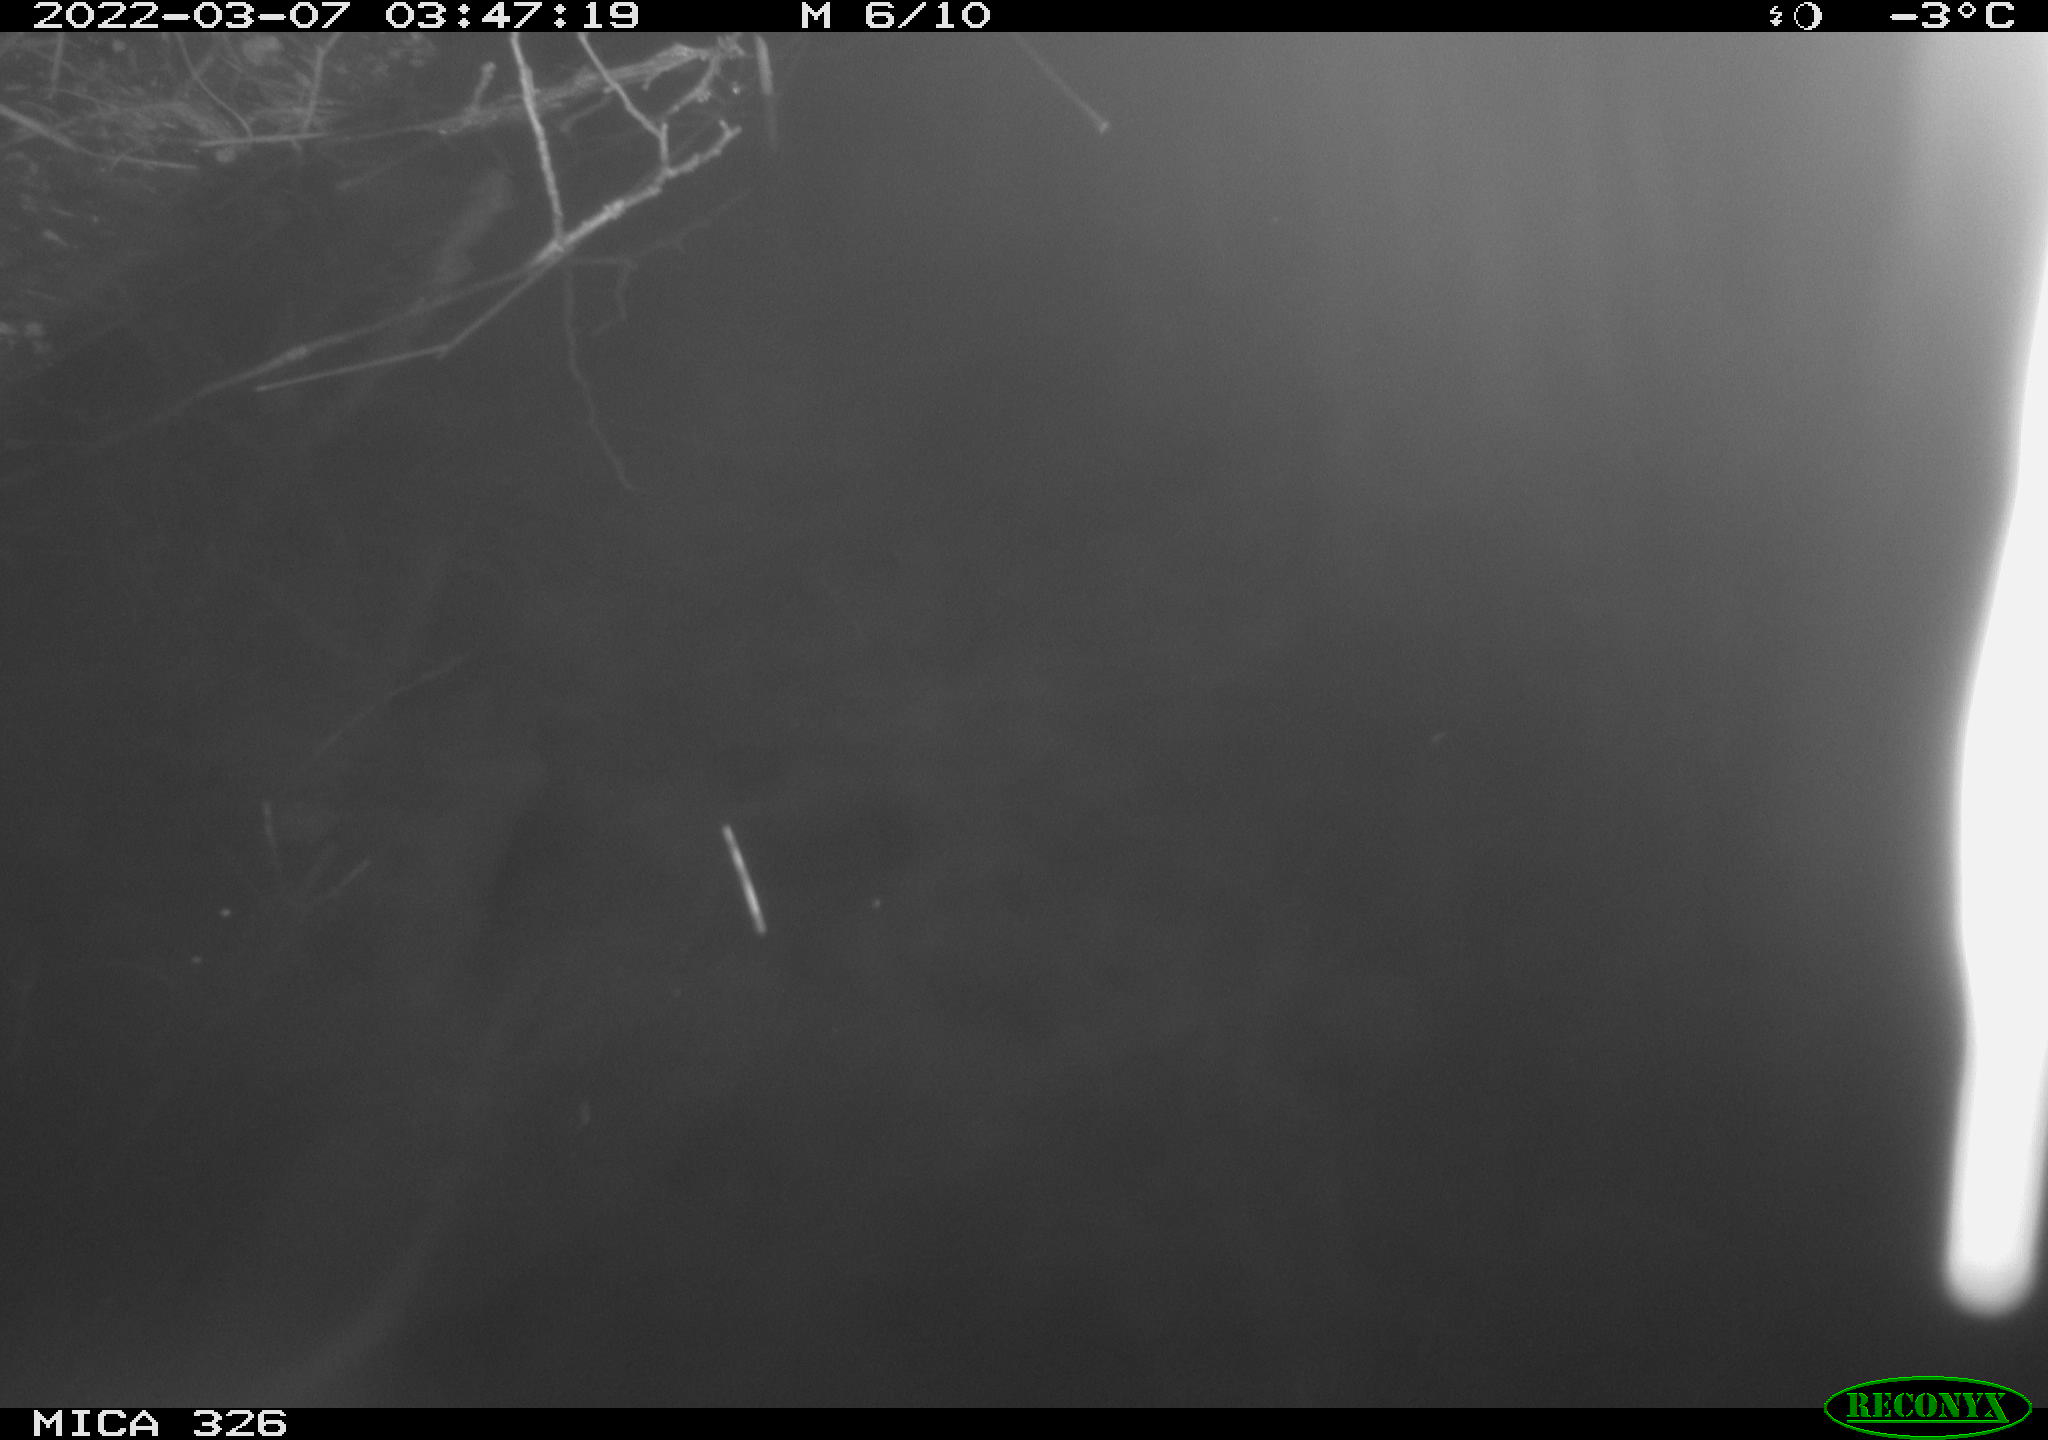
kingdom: Animalia
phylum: Chordata
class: Mammalia
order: Rodentia
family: Muridae
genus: Rattus
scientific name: Rattus norvegicus
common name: Brown rat
